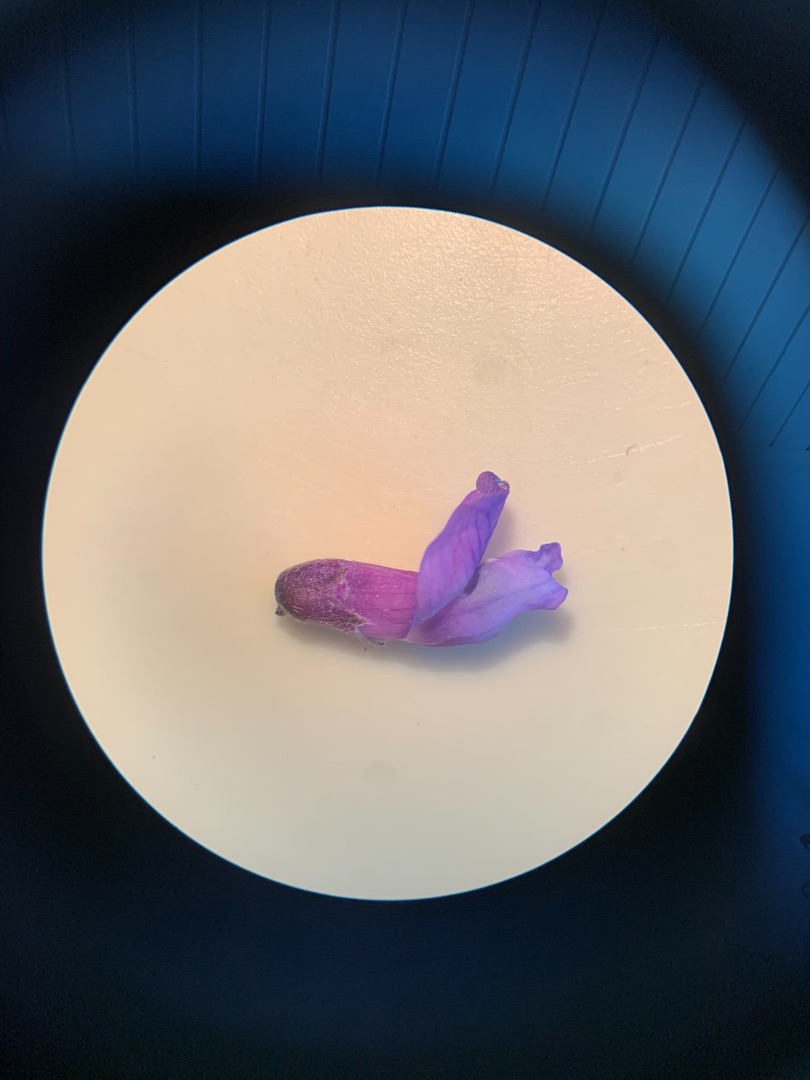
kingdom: Plantae
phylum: Tracheophyta
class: Magnoliopsida
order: Fabales
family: Fabaceae
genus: Vicia
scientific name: Vicia cracca
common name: Muse-vikke
